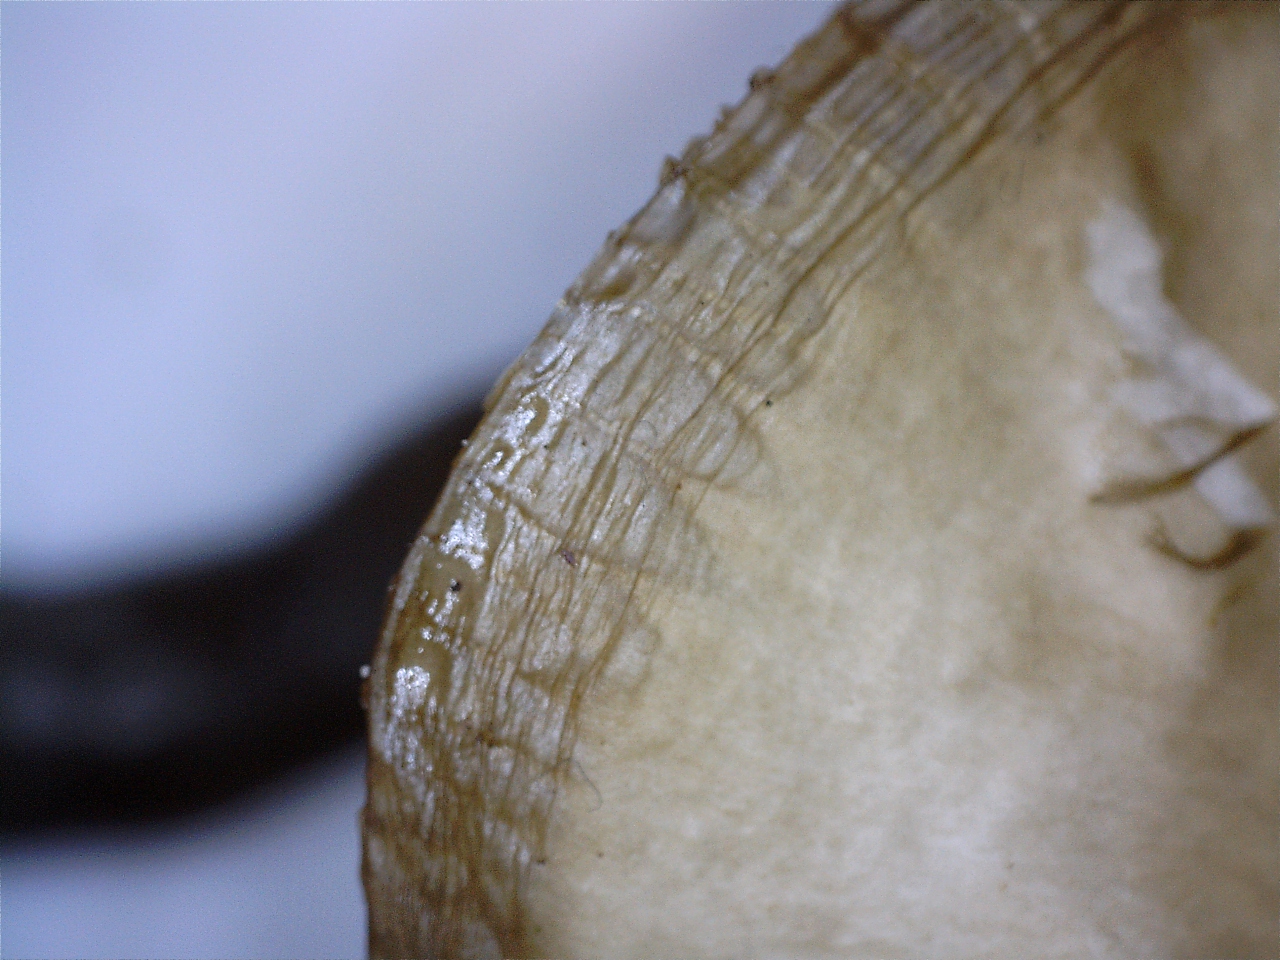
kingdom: Fungi
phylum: Basidiomycota
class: Agaricomycetes
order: Agaricales
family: Hygrophoraceae
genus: Gliophorus
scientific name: Gliophorus irrigatus
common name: slimet vokshat
